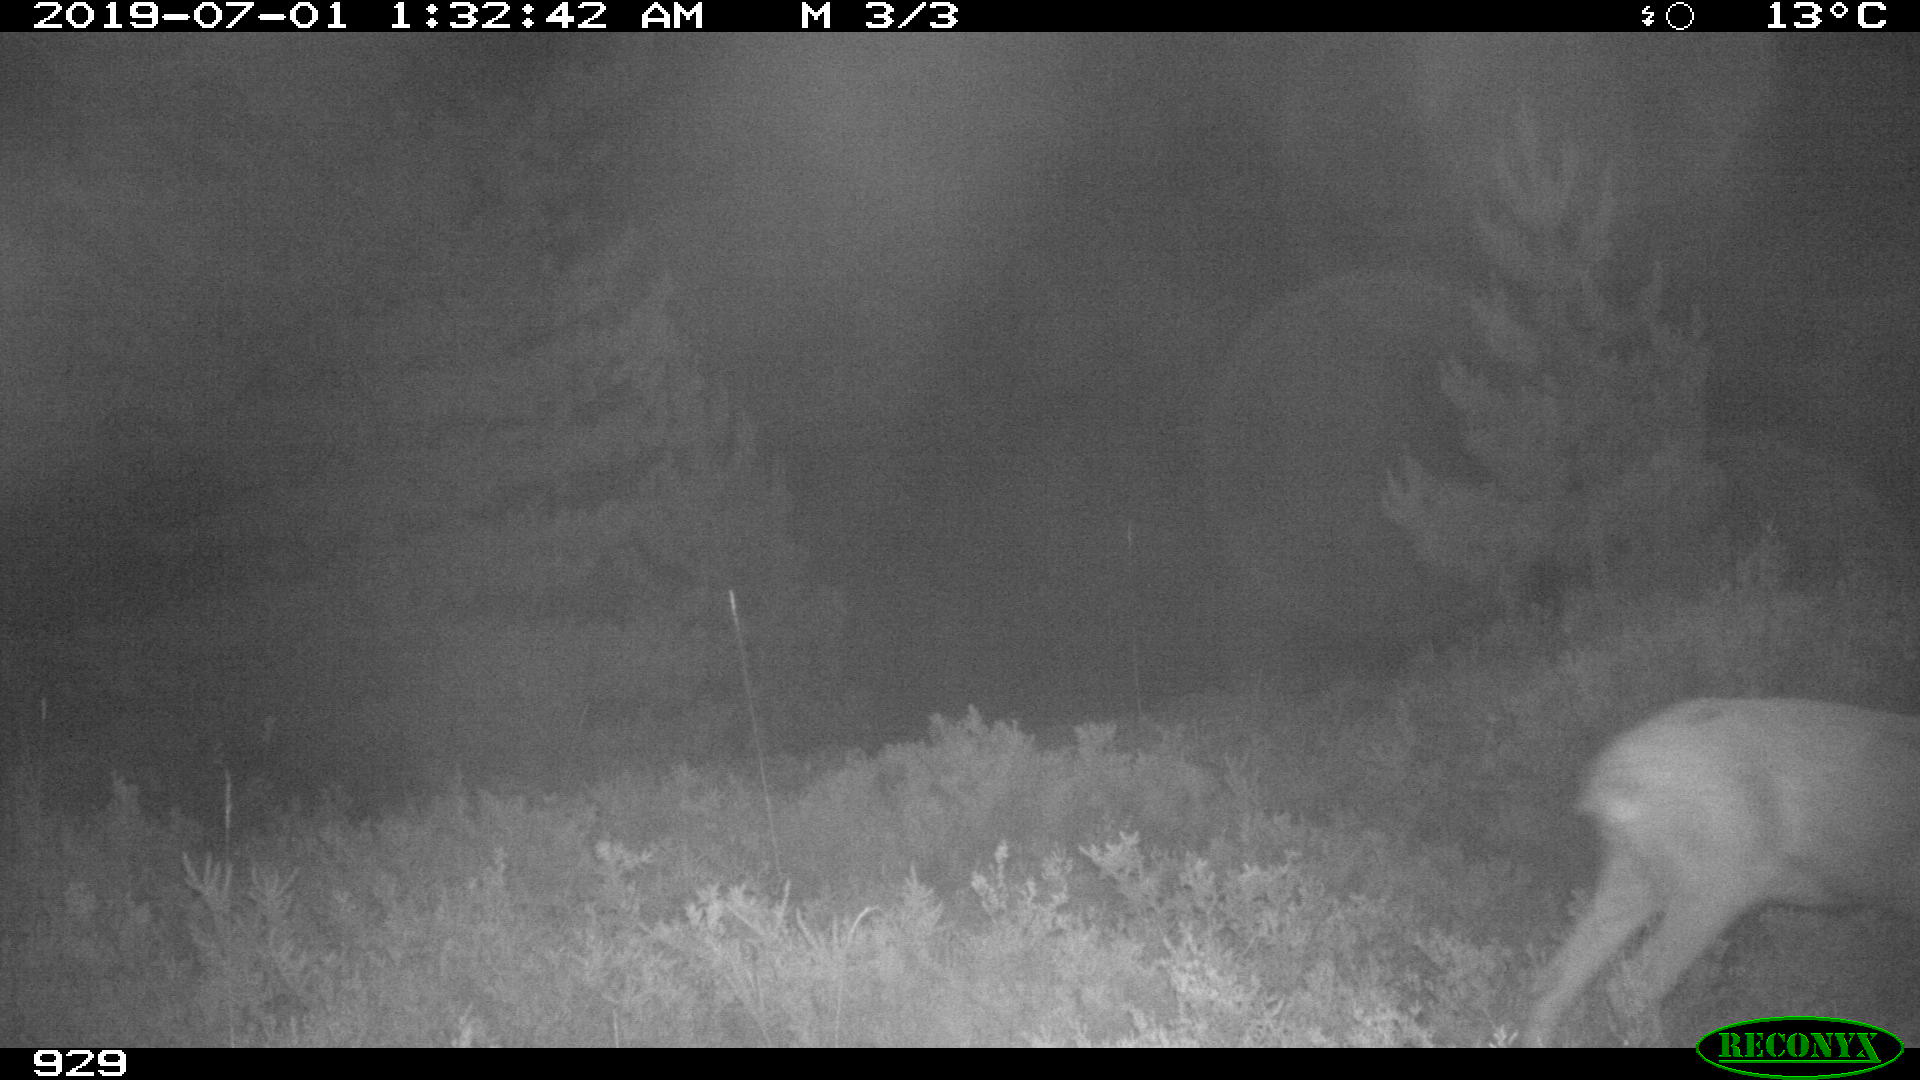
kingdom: Animalia
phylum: Chordata
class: Mammalia
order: Artiodactyla
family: Cervidae
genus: Capreolus
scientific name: Capreolus capreolus
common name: Western roe deer
